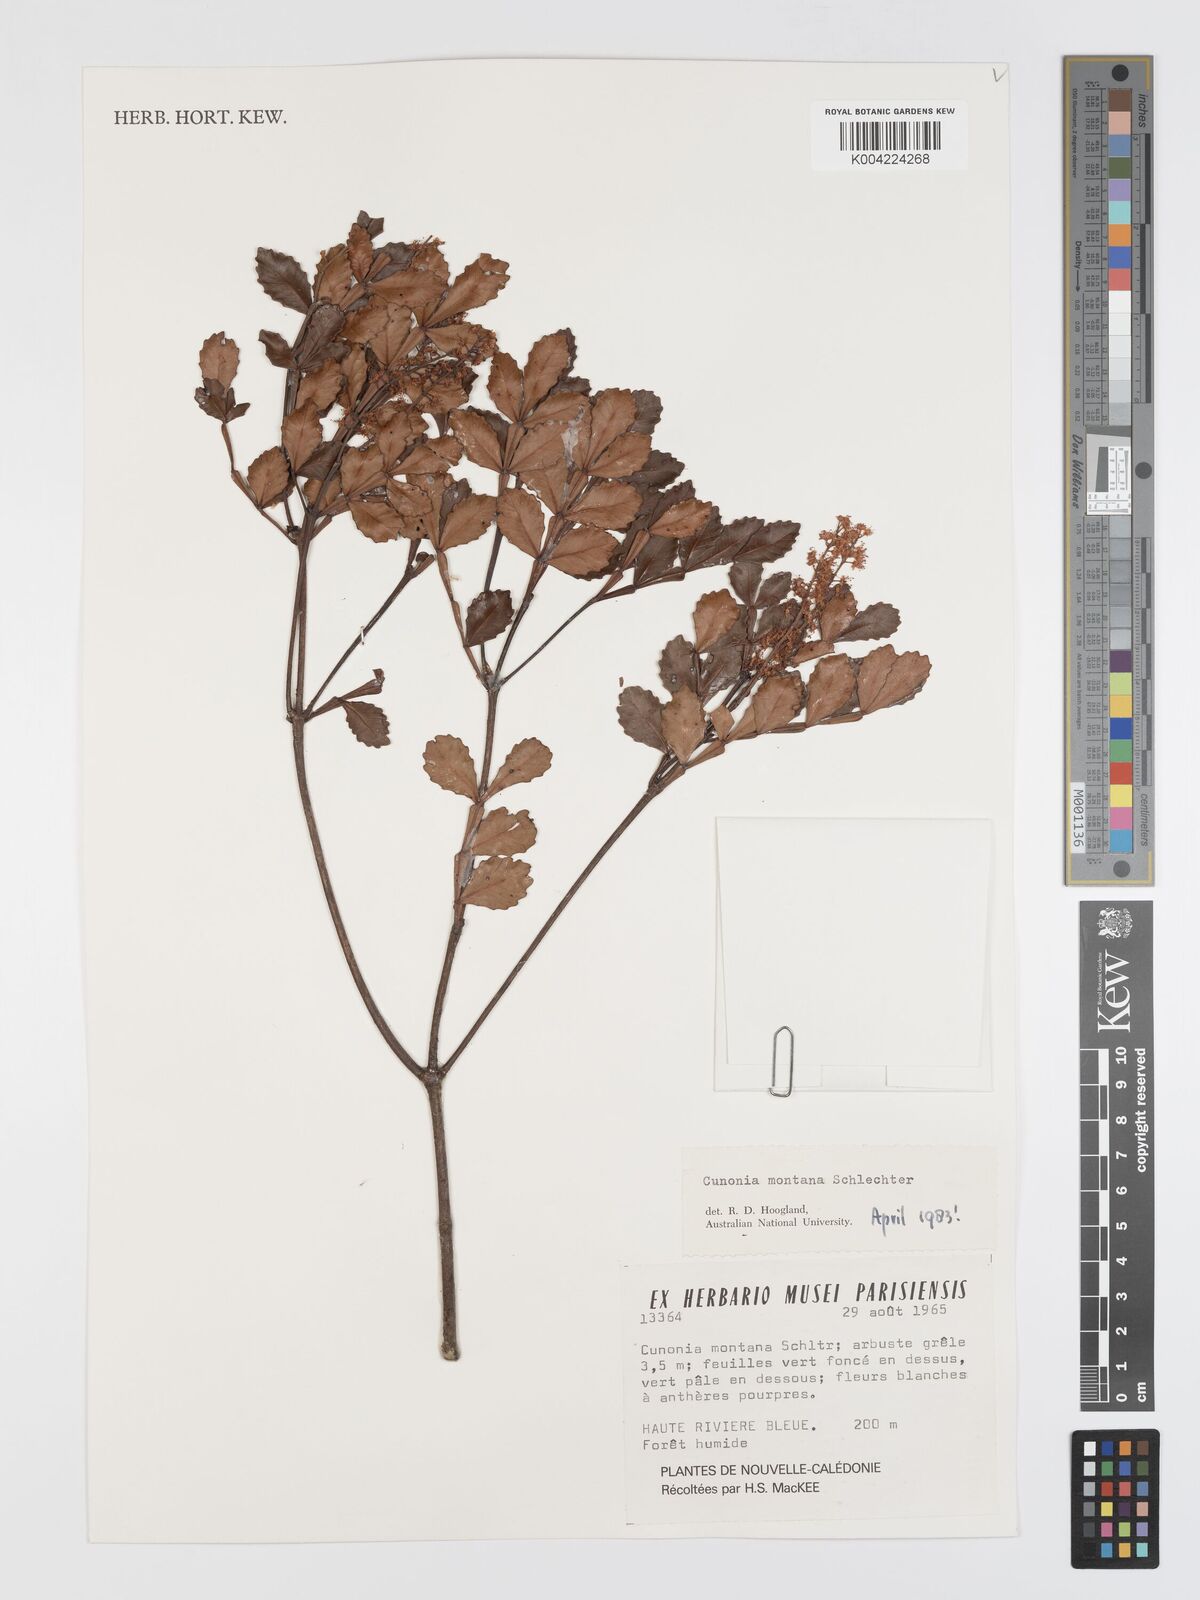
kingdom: Plantae
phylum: Tracheophyta
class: Magnoliopsida
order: Oxalidales
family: Cunoniaceae
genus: Cunonia
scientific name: Cunonia montana
